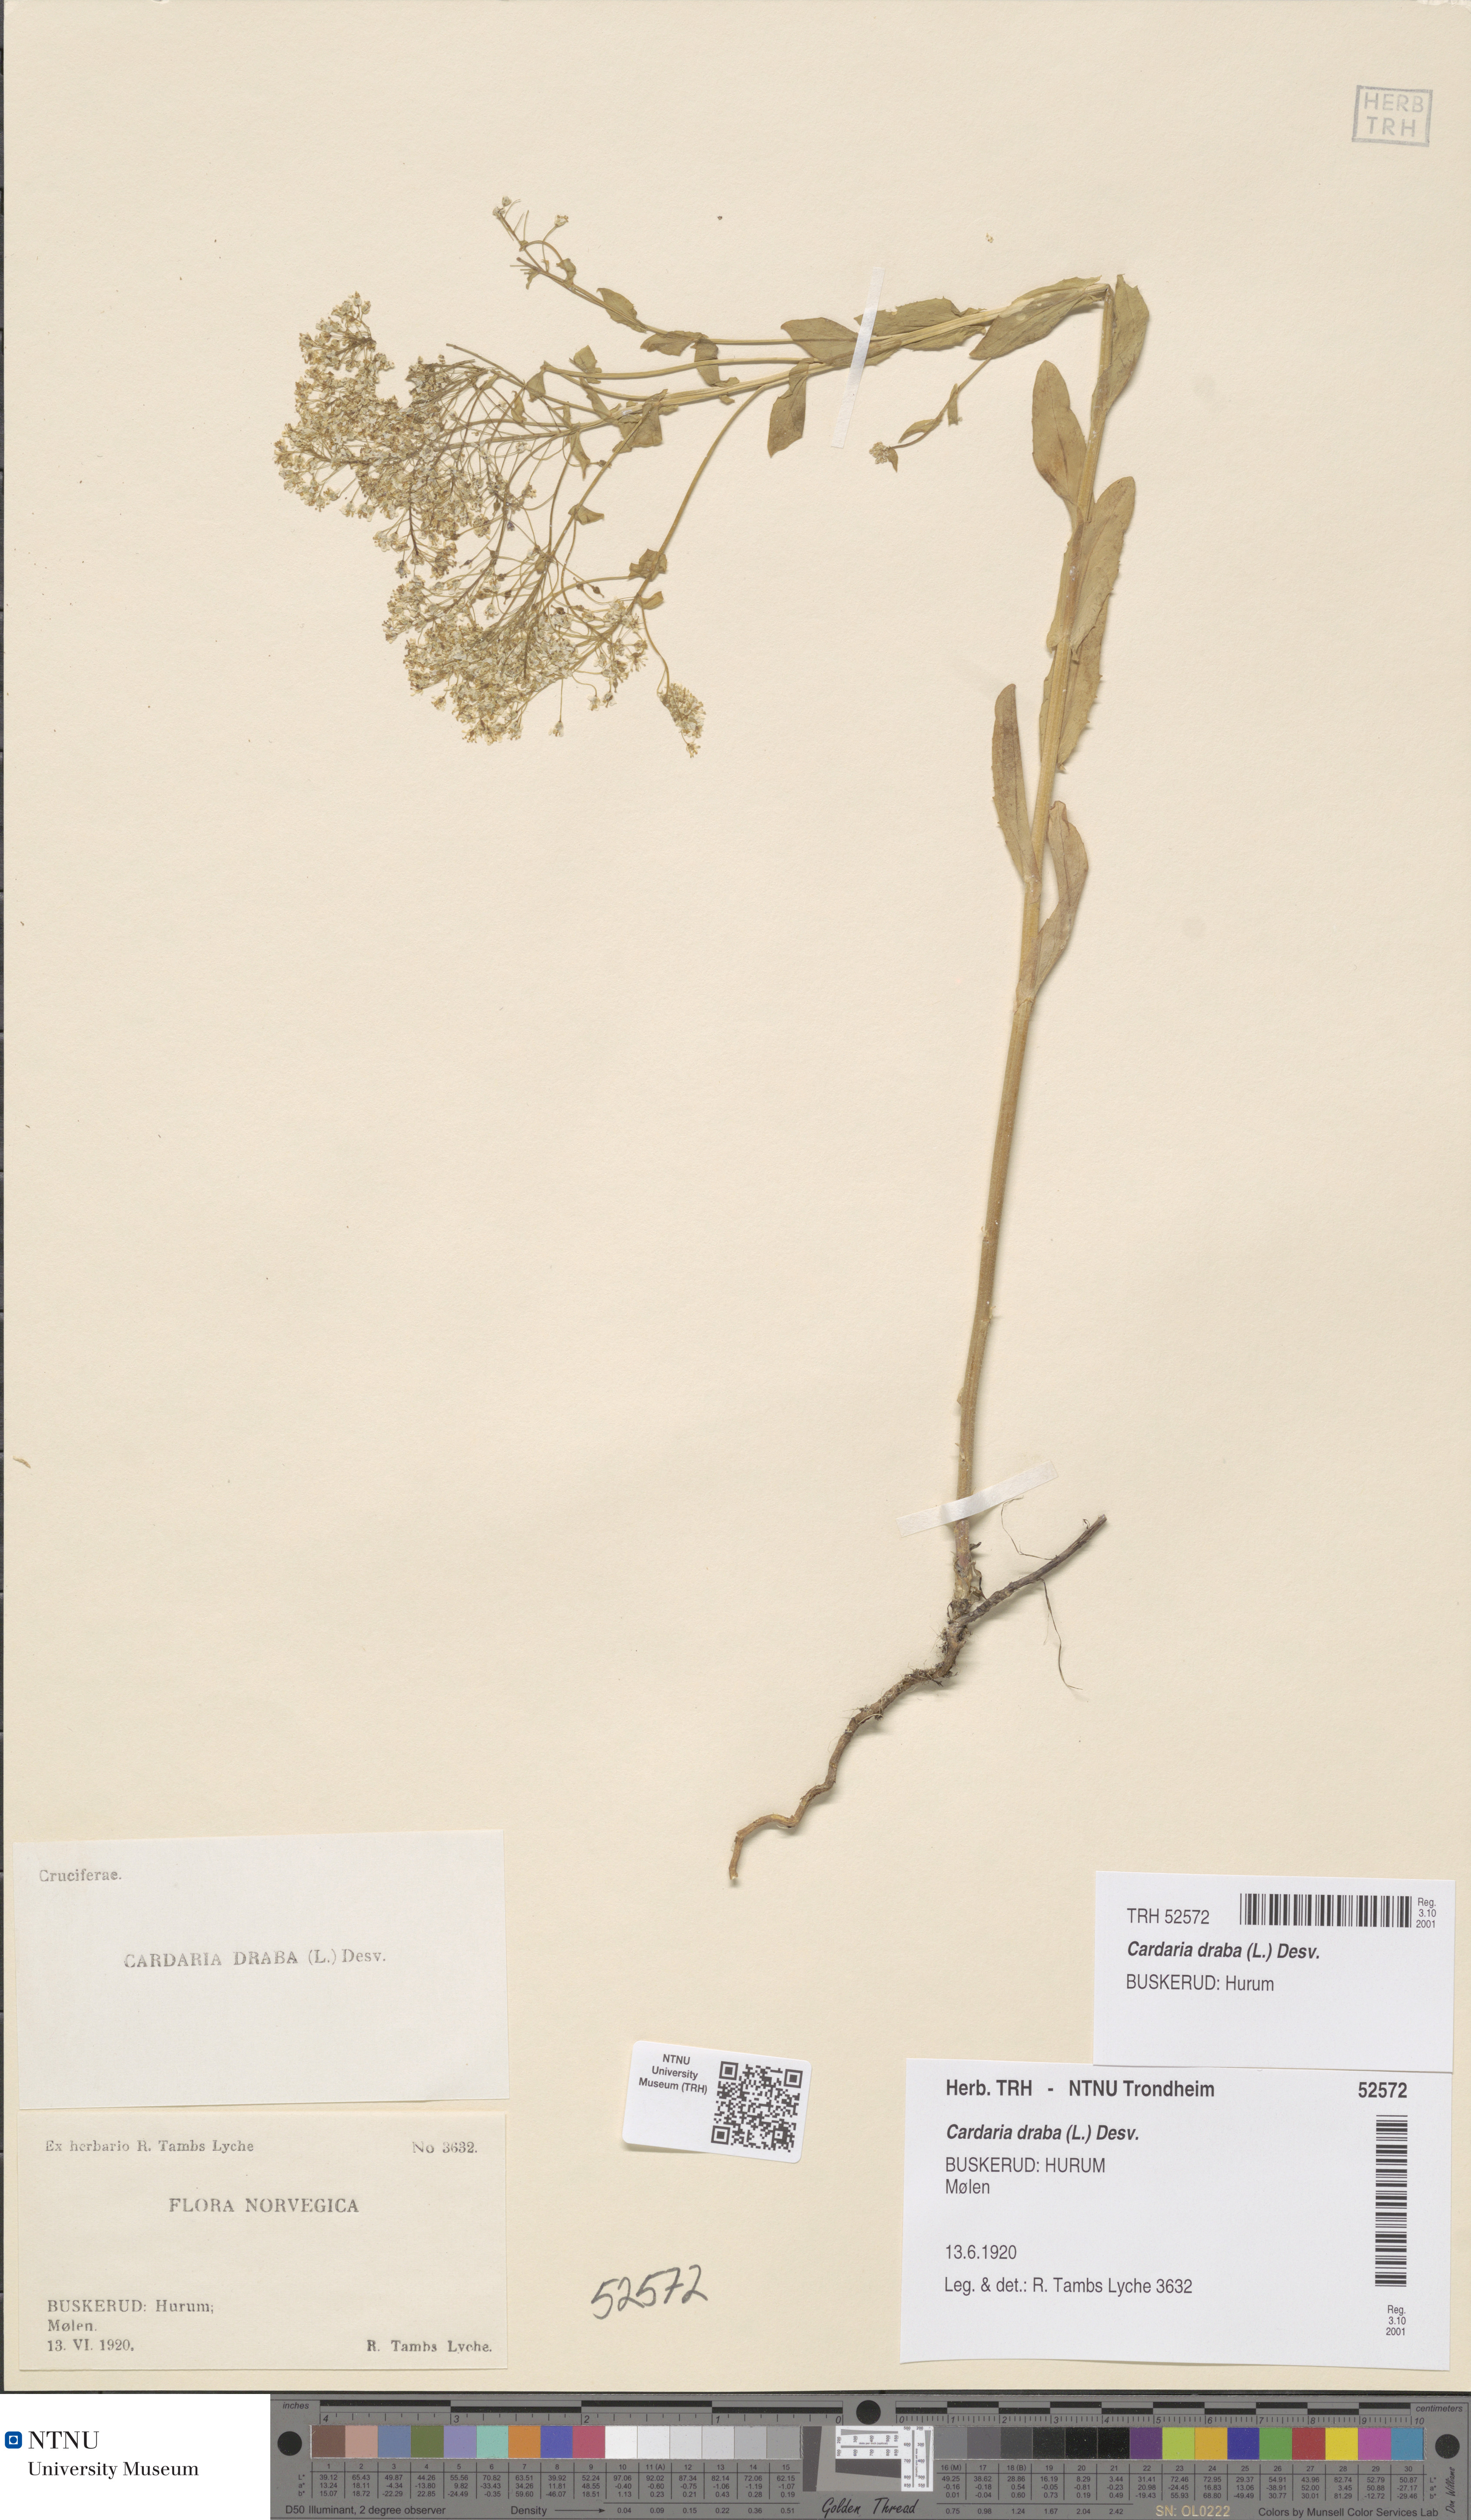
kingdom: Plantae
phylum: Tracheophyta
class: Magnoliopsida
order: Brassicales
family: Brassicaceae
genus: Lepidium
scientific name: Lepidium draba
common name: Hoary cress
